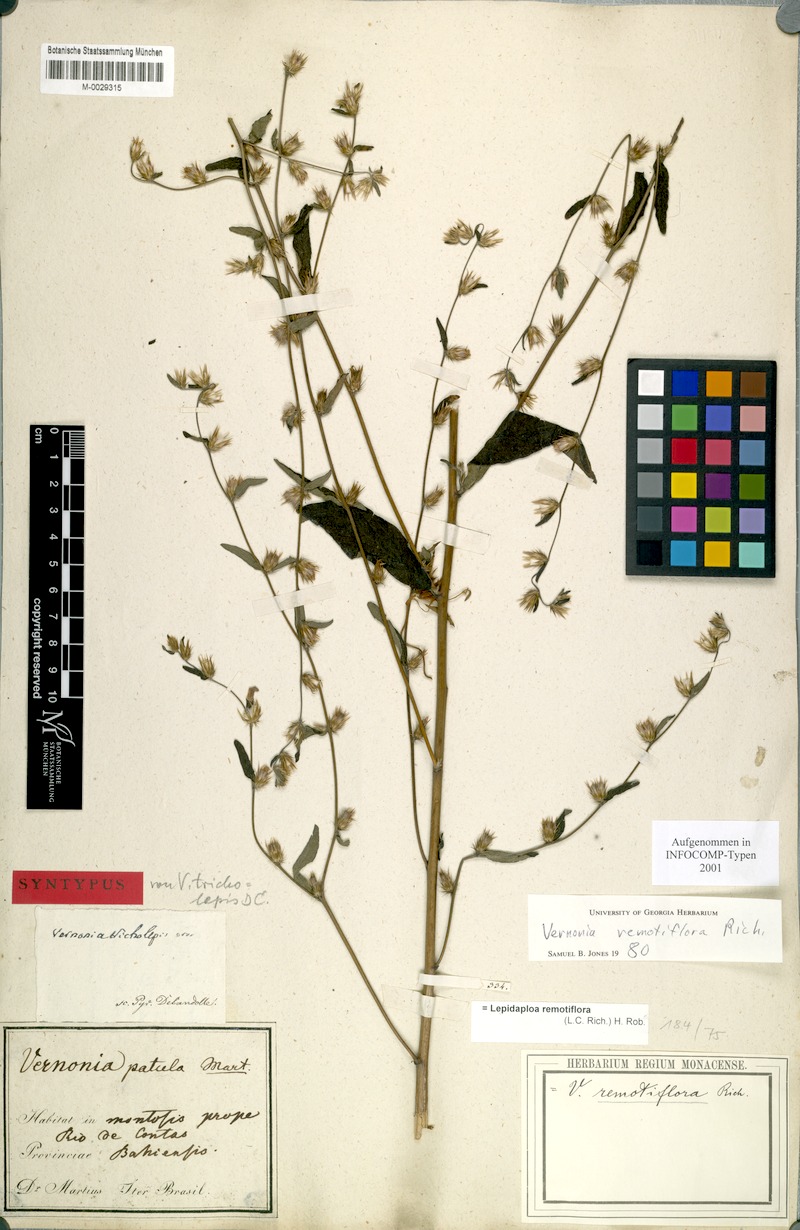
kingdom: Plantae
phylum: Tracheophyta
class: Magnoliopsida
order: Asterales
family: Asteraceae
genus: Lepidaploa
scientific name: Lepidaploa remotiflora
